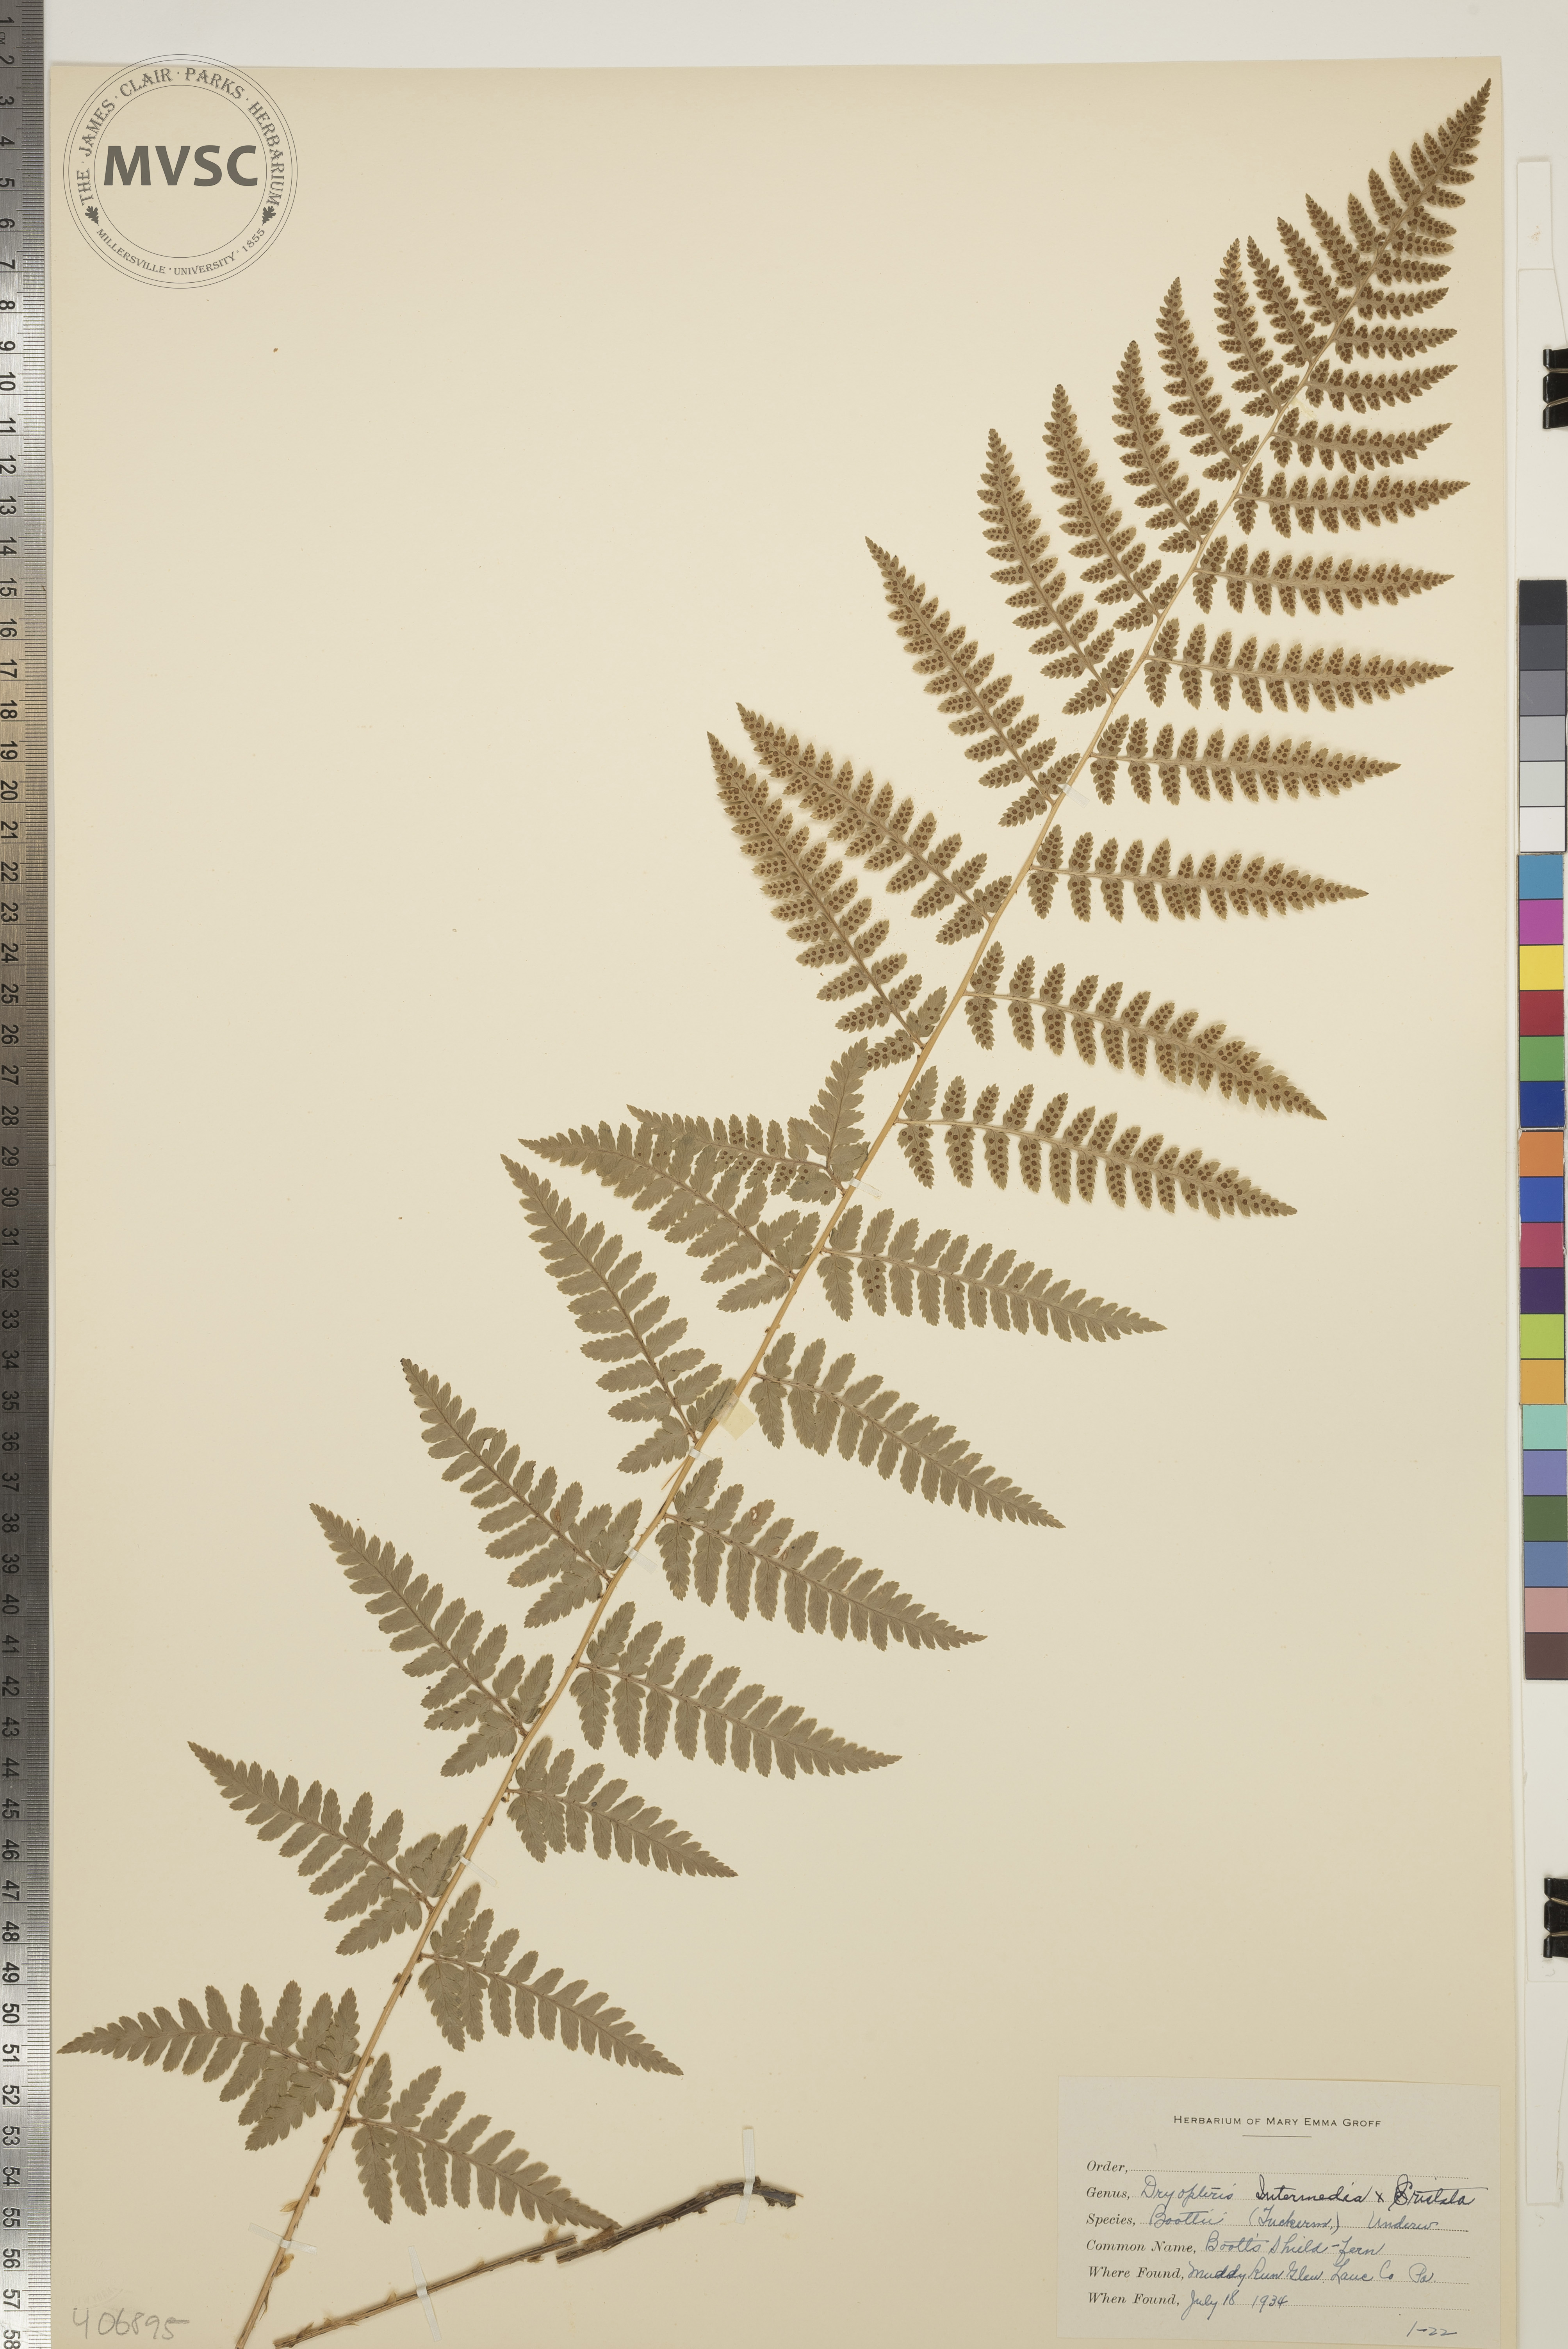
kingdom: Plantae
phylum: Tracheophyta
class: Polypodiopsida
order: Polypodiales
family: Dryopteridaceae
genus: Dryopteris
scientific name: Dryopteris
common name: Boott's Shield Fern
